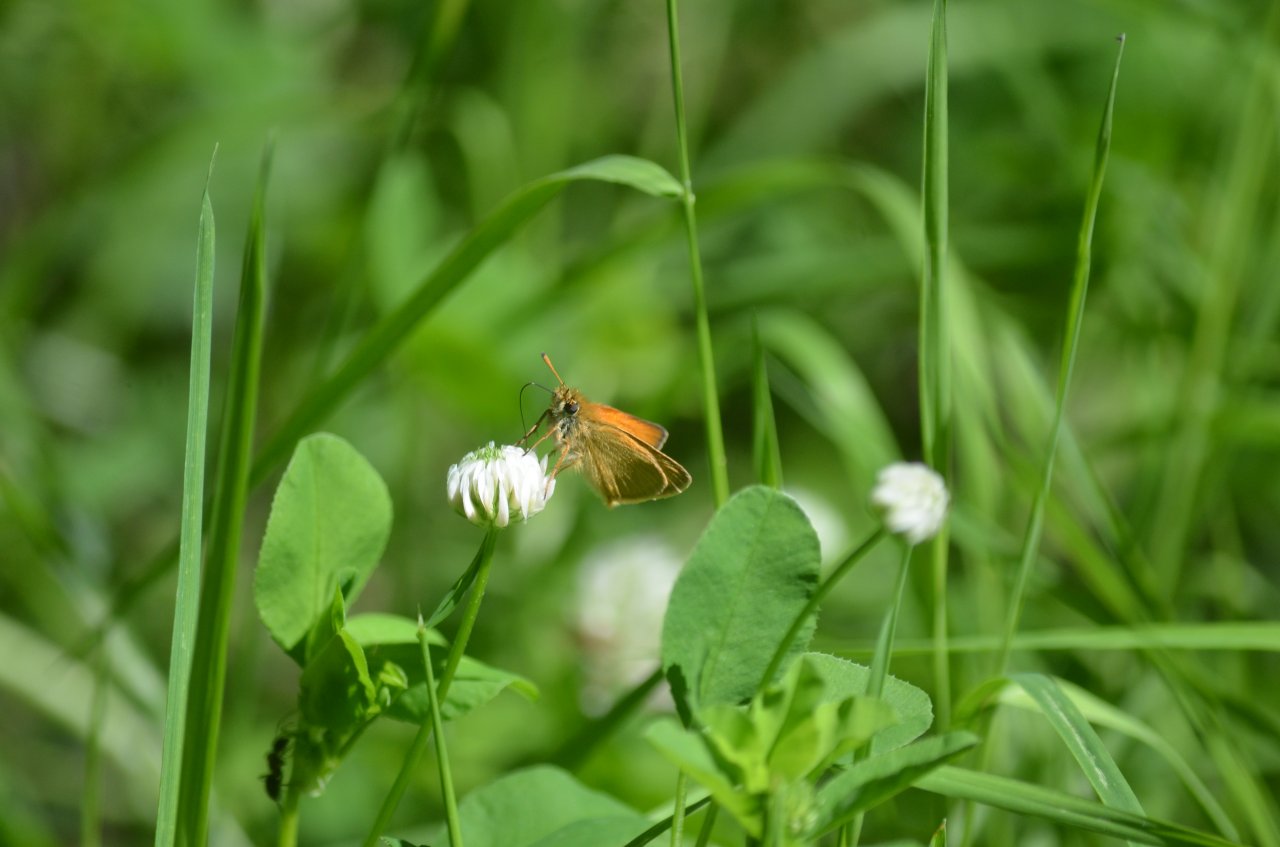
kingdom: Animalia
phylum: Arthropoda
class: Insecta
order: Lepidoptera
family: Hesperiidae
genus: Thymelicus
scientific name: Thymelicus lineola
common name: European Skipper
